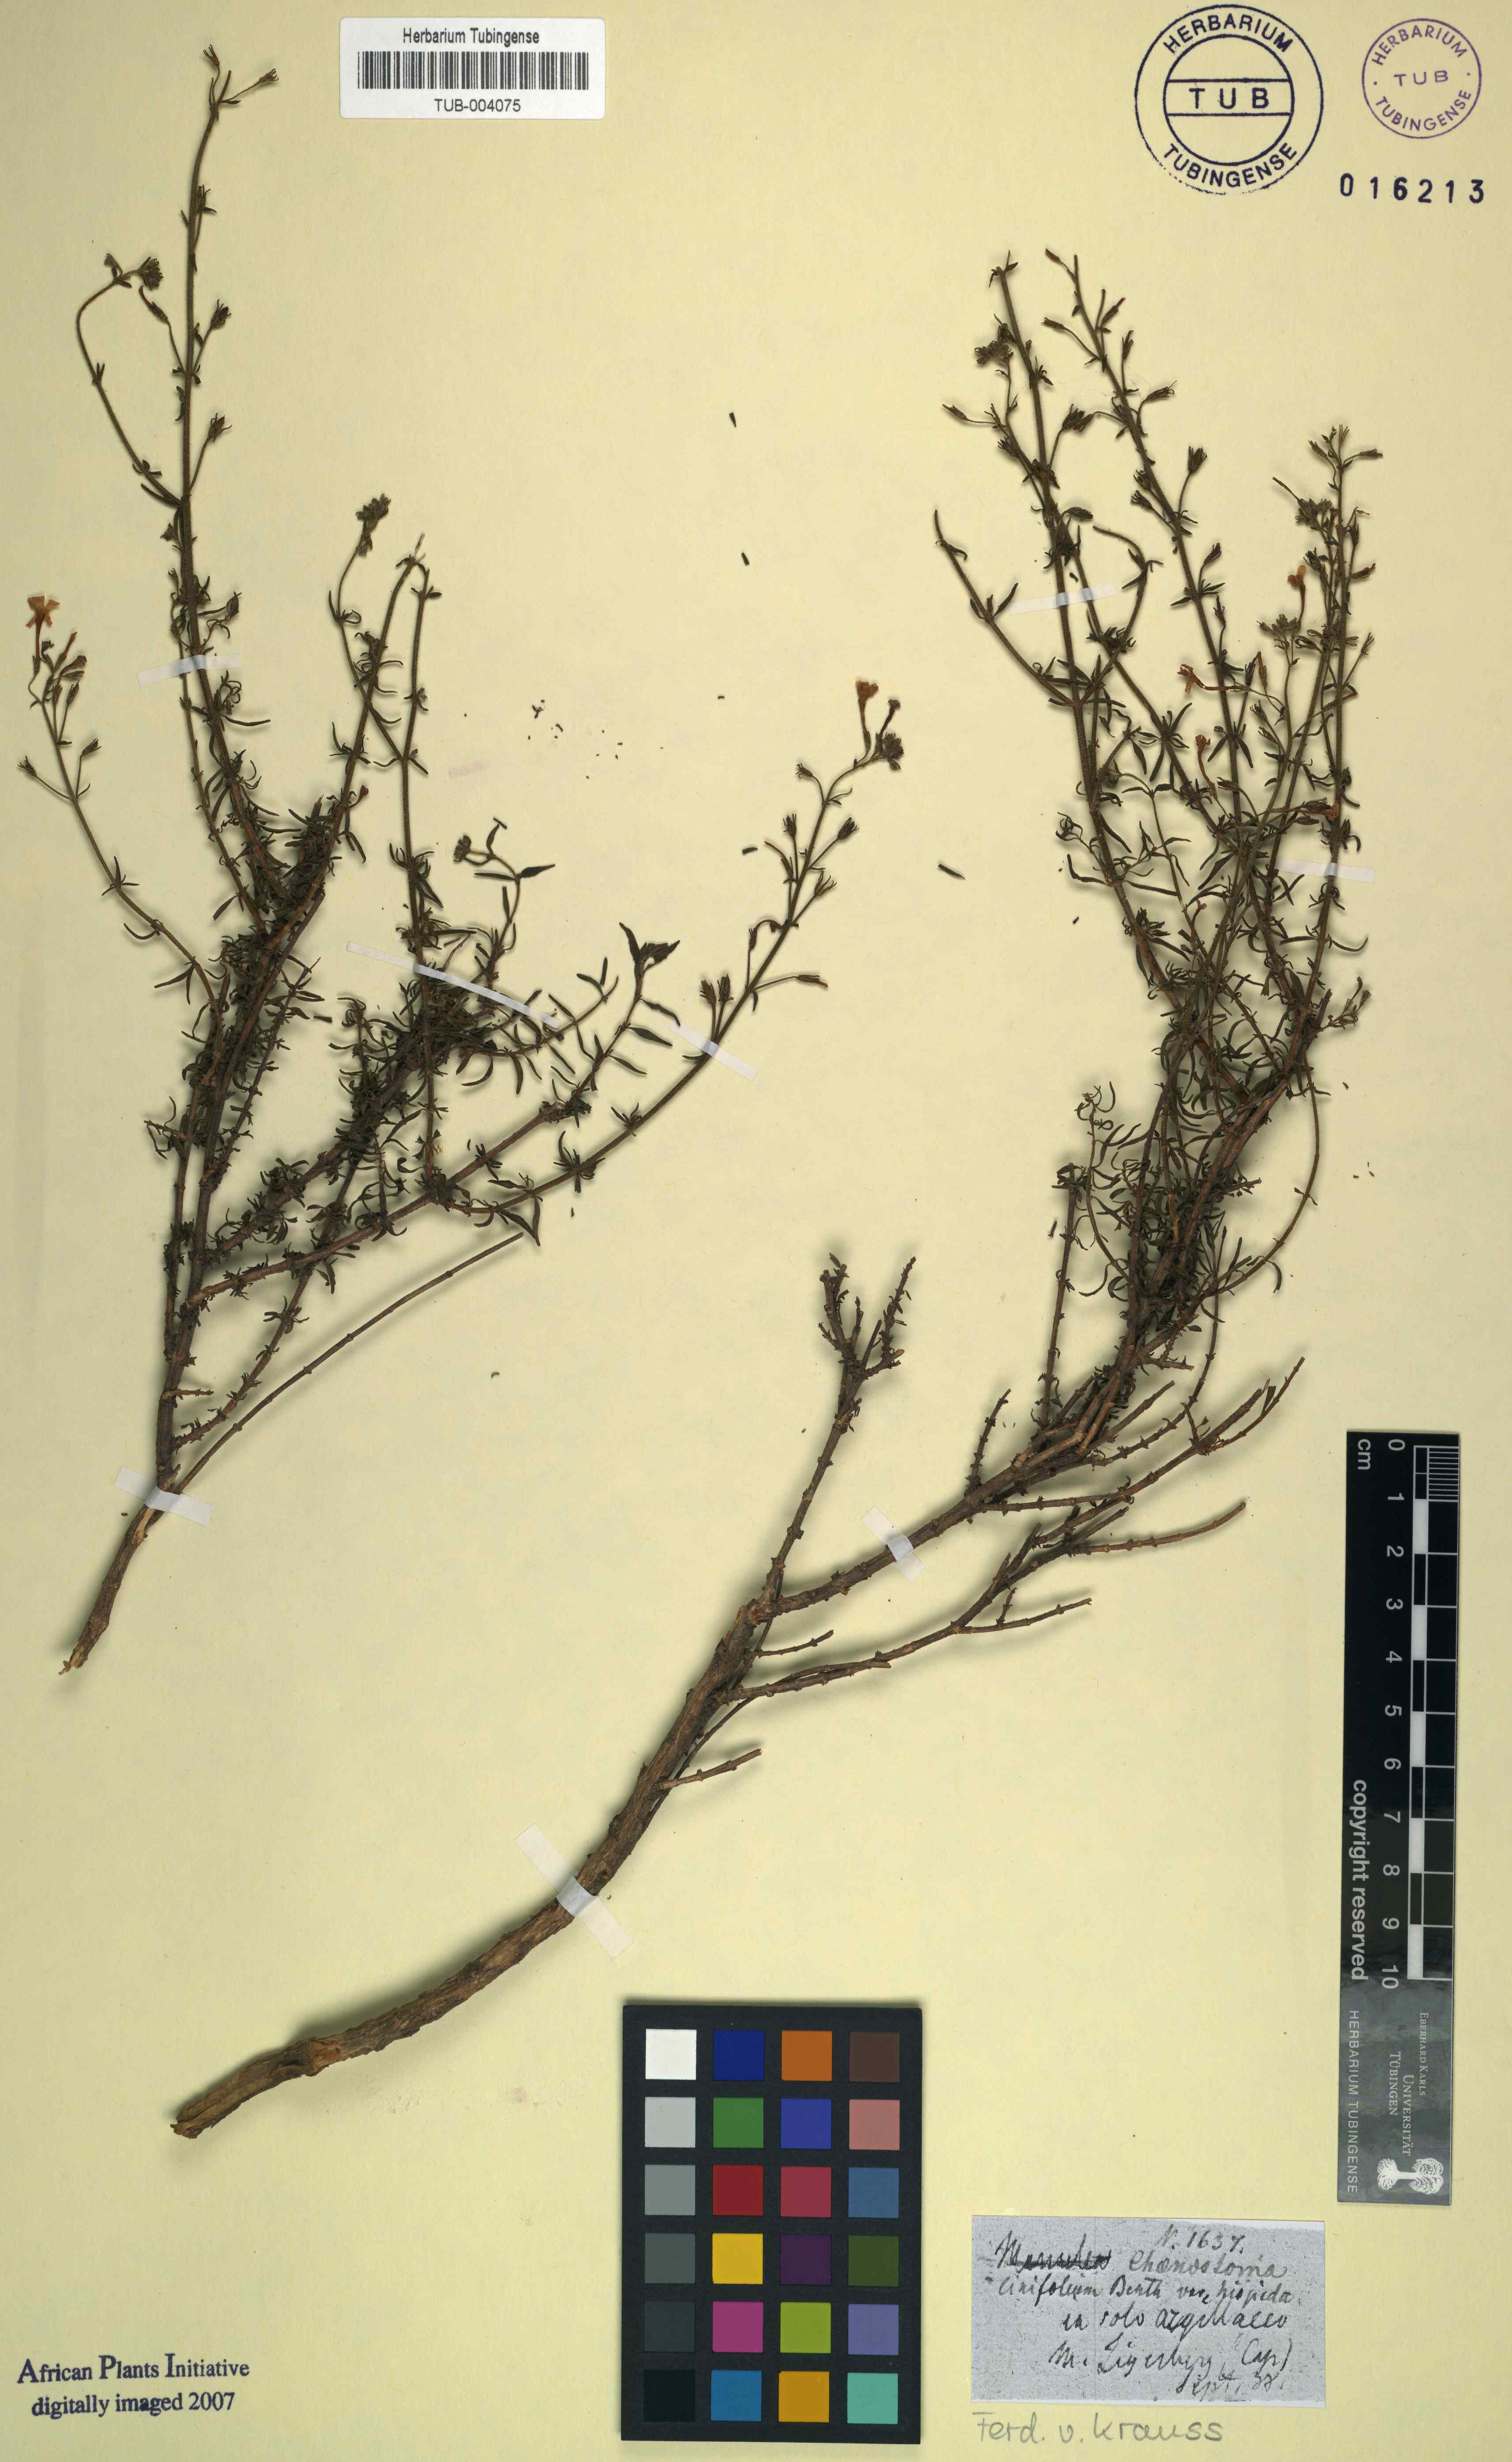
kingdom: Plantae
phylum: Tracheophyta
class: Magnoliopsida
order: Lamiales
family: Scrophulariaceae
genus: Chaenostoma
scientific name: Chaenostoma uncinatum
